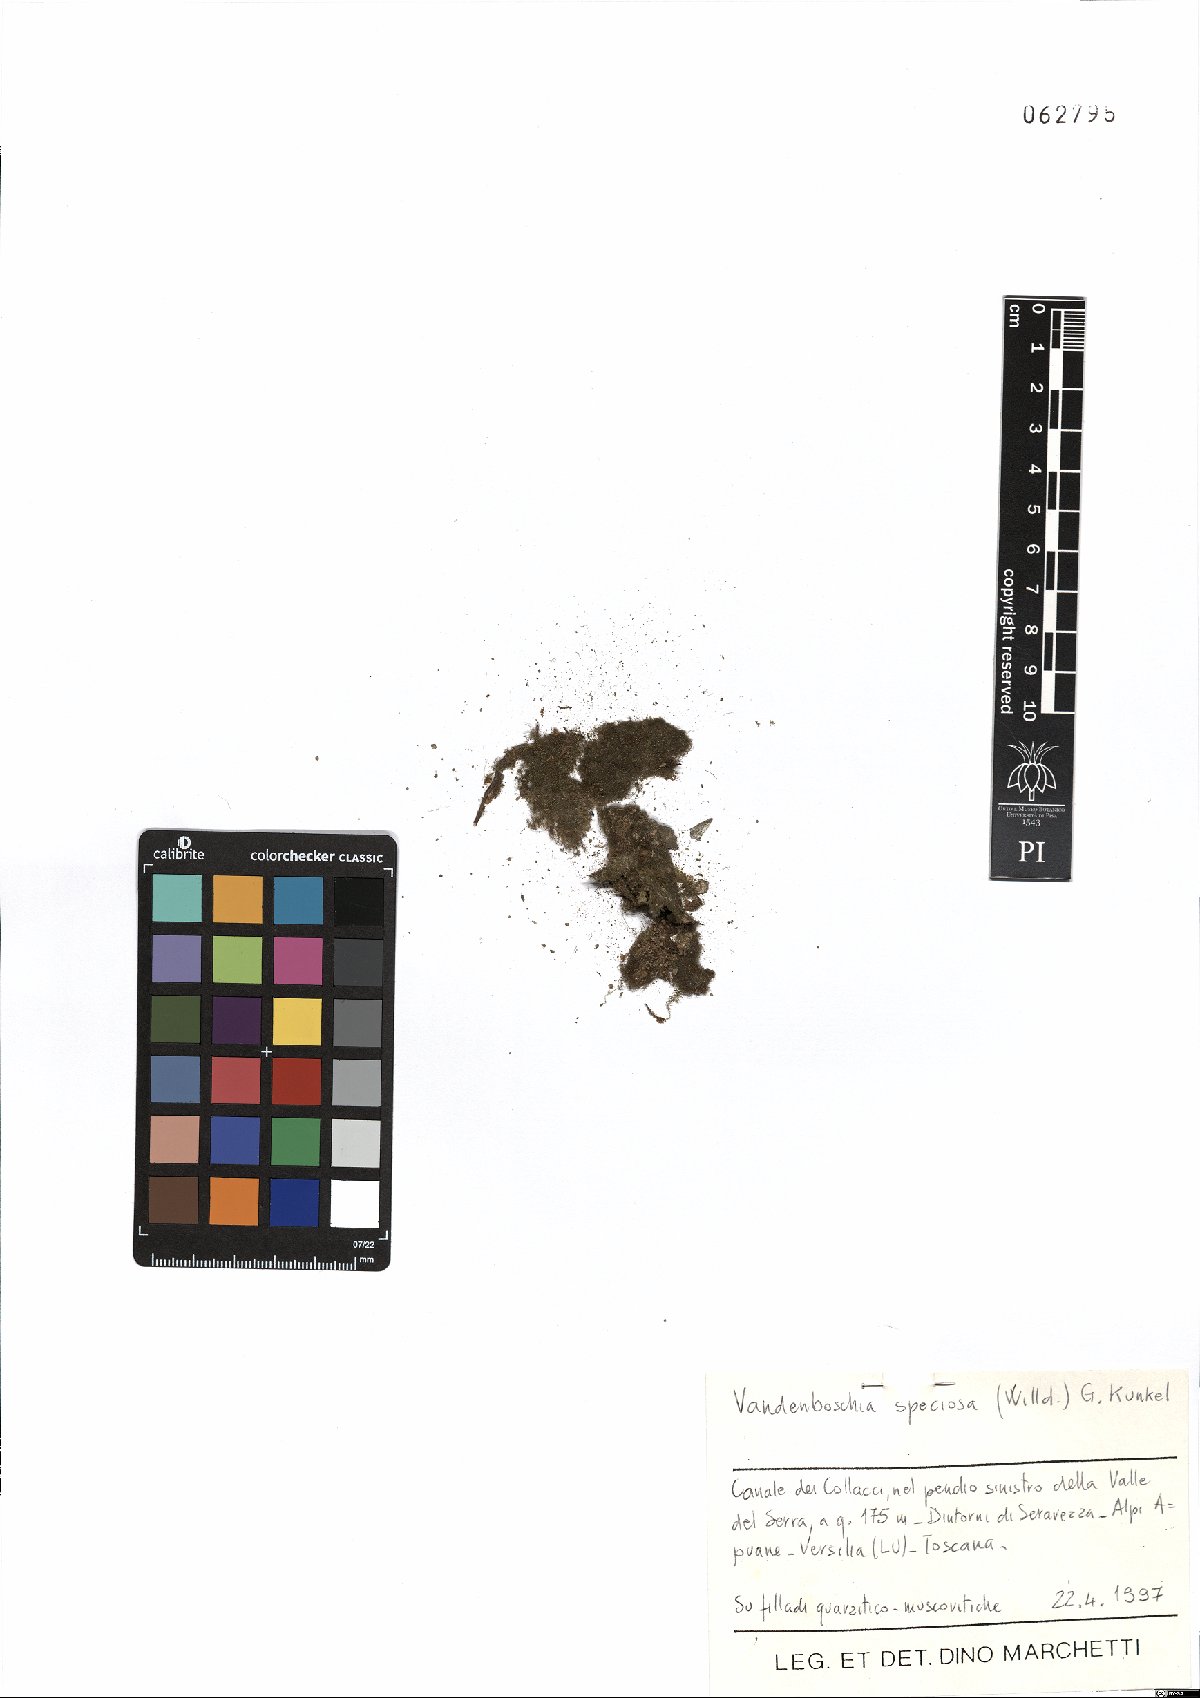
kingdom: Plantae
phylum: Tracheophyta
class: Polypodiopsida
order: Hymenophyllales
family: Hymenophyllaceae
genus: Vandenboschia
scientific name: Vandenboschia speciosa
